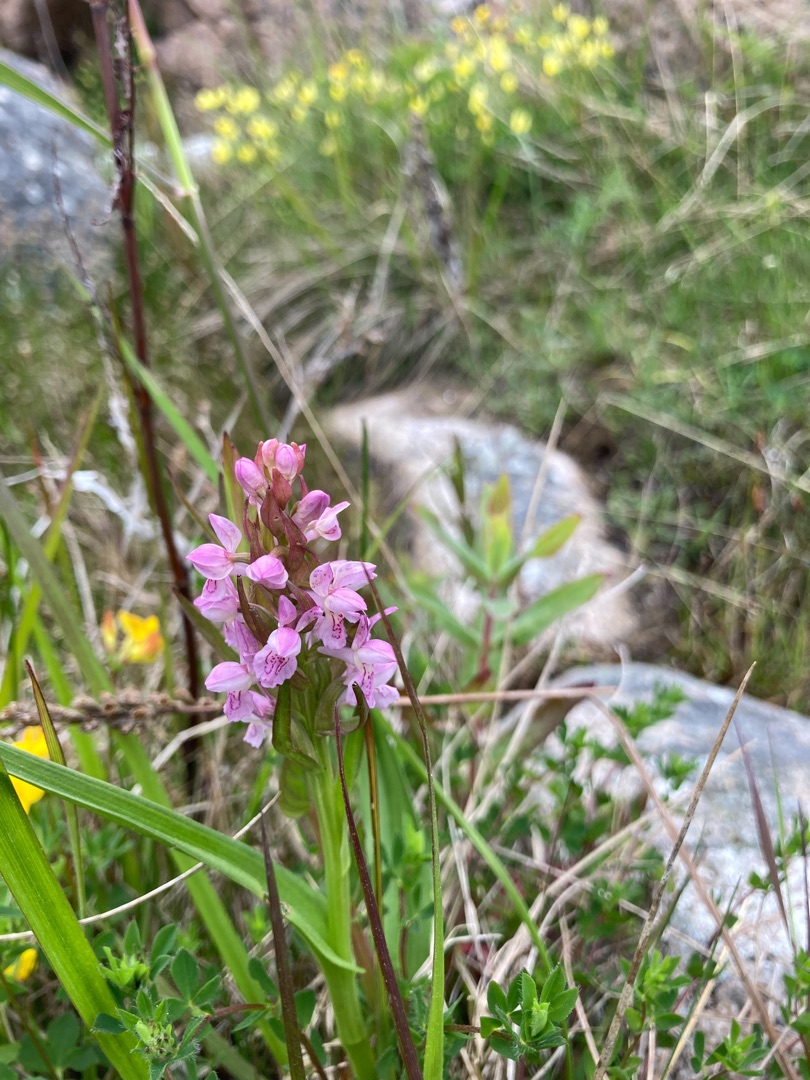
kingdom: Plantae
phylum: Tracheophyta
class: Liliopsida
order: Asparagales
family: Orchidaceae
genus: Dactylorhiza
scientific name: Dactylorhiza incarnata
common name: Kødfarvet gøgeurt
